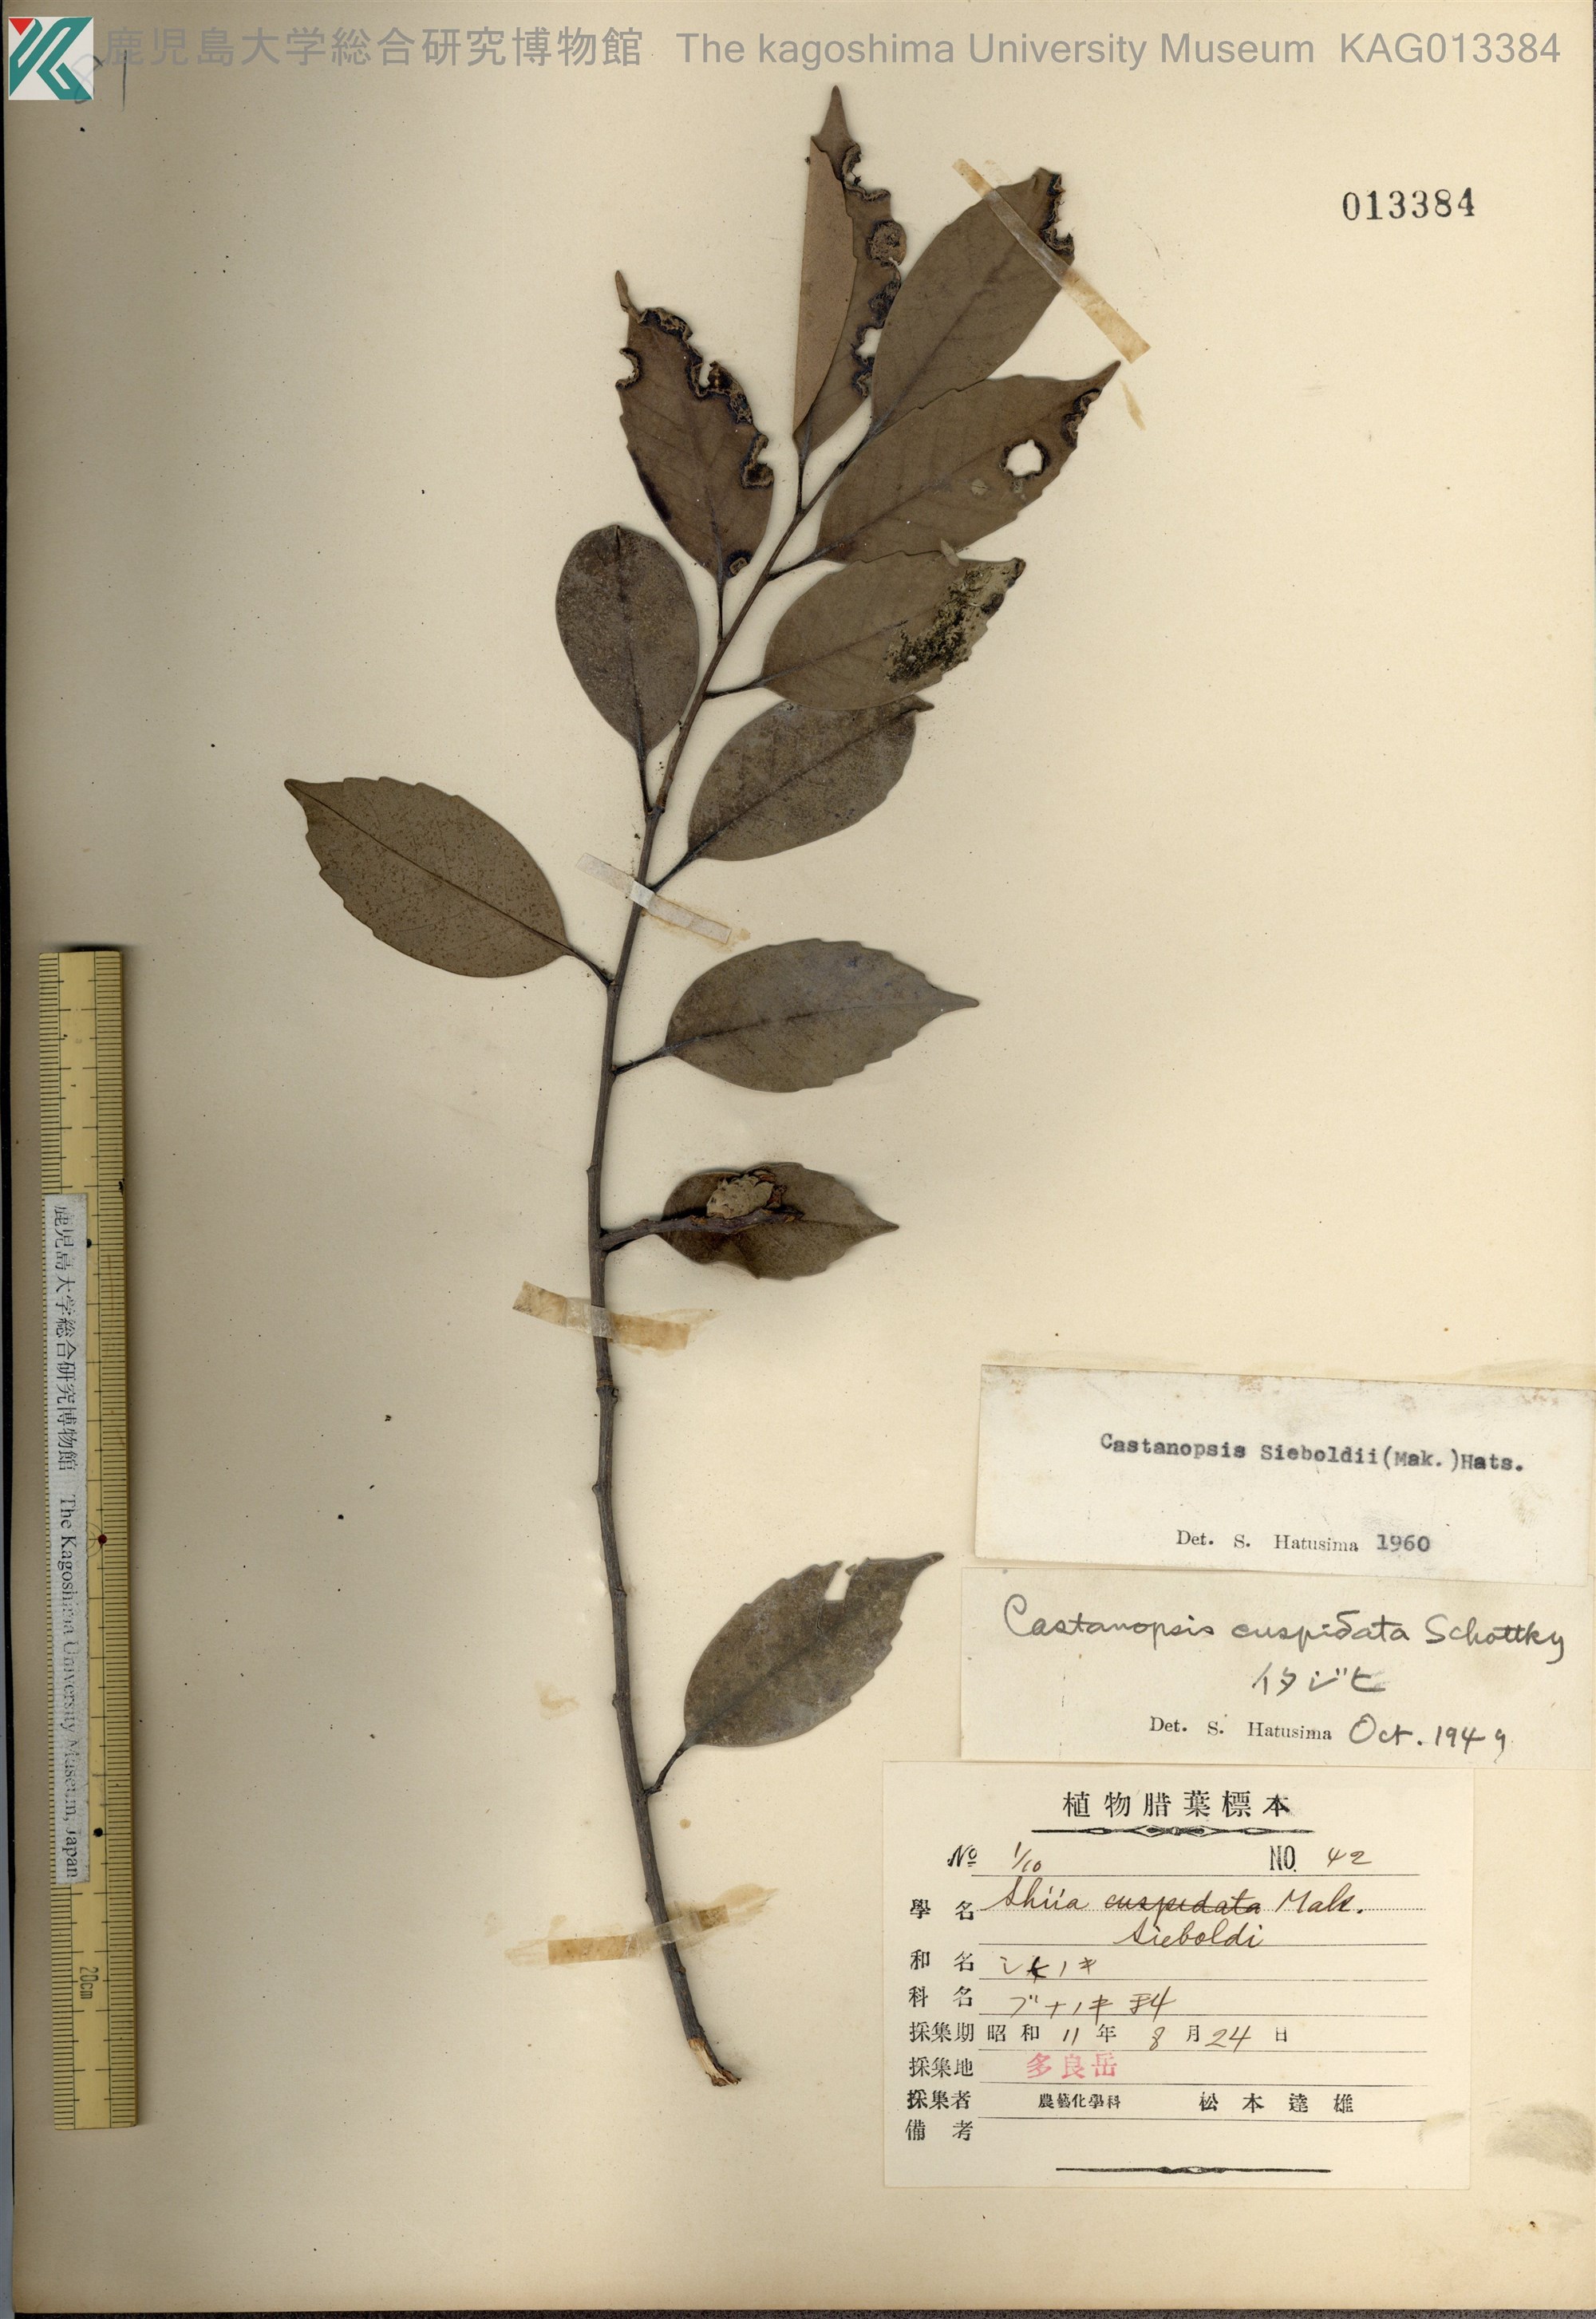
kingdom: Plantae
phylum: Tracheophyta
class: Magnoliopsida
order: Fagales
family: Fagaceae
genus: Castanopsis
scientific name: Castanopsis sieboldii
